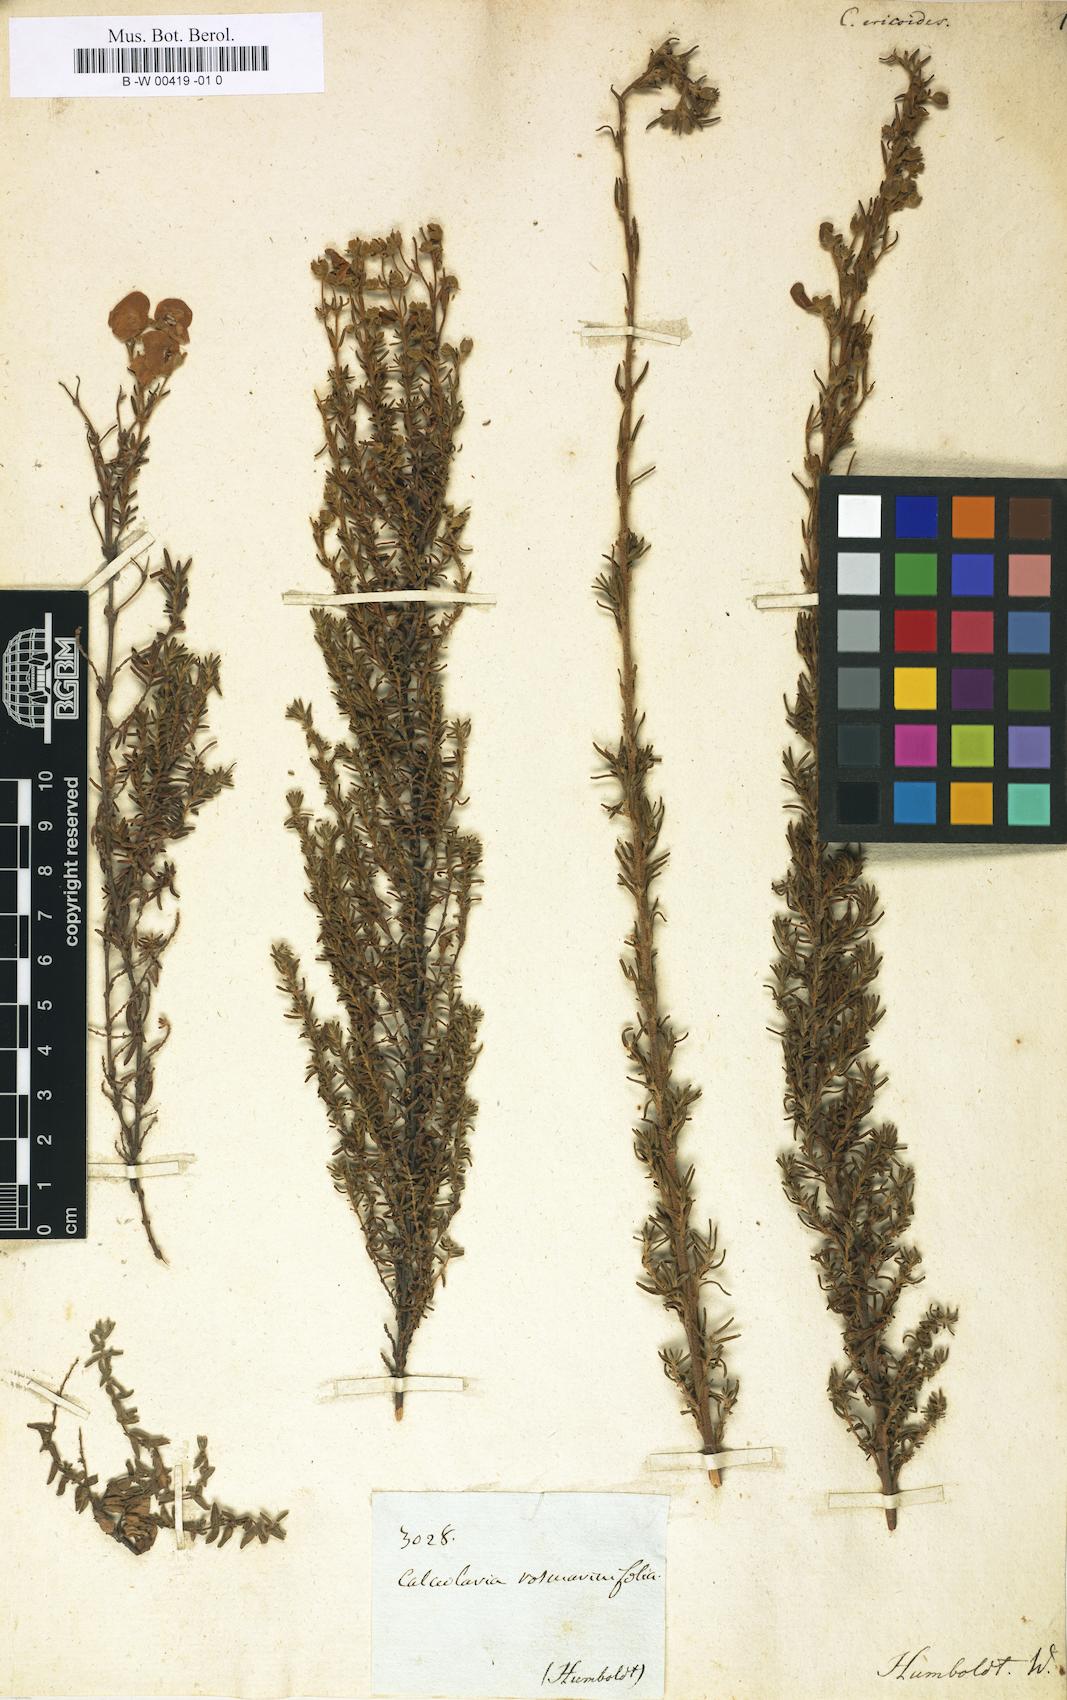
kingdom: Plantae
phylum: Tracheophyta
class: Magnoliopsida
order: Lamiales
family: Calceolariaceae
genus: Calceolaria
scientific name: Calceolaria ericoides
